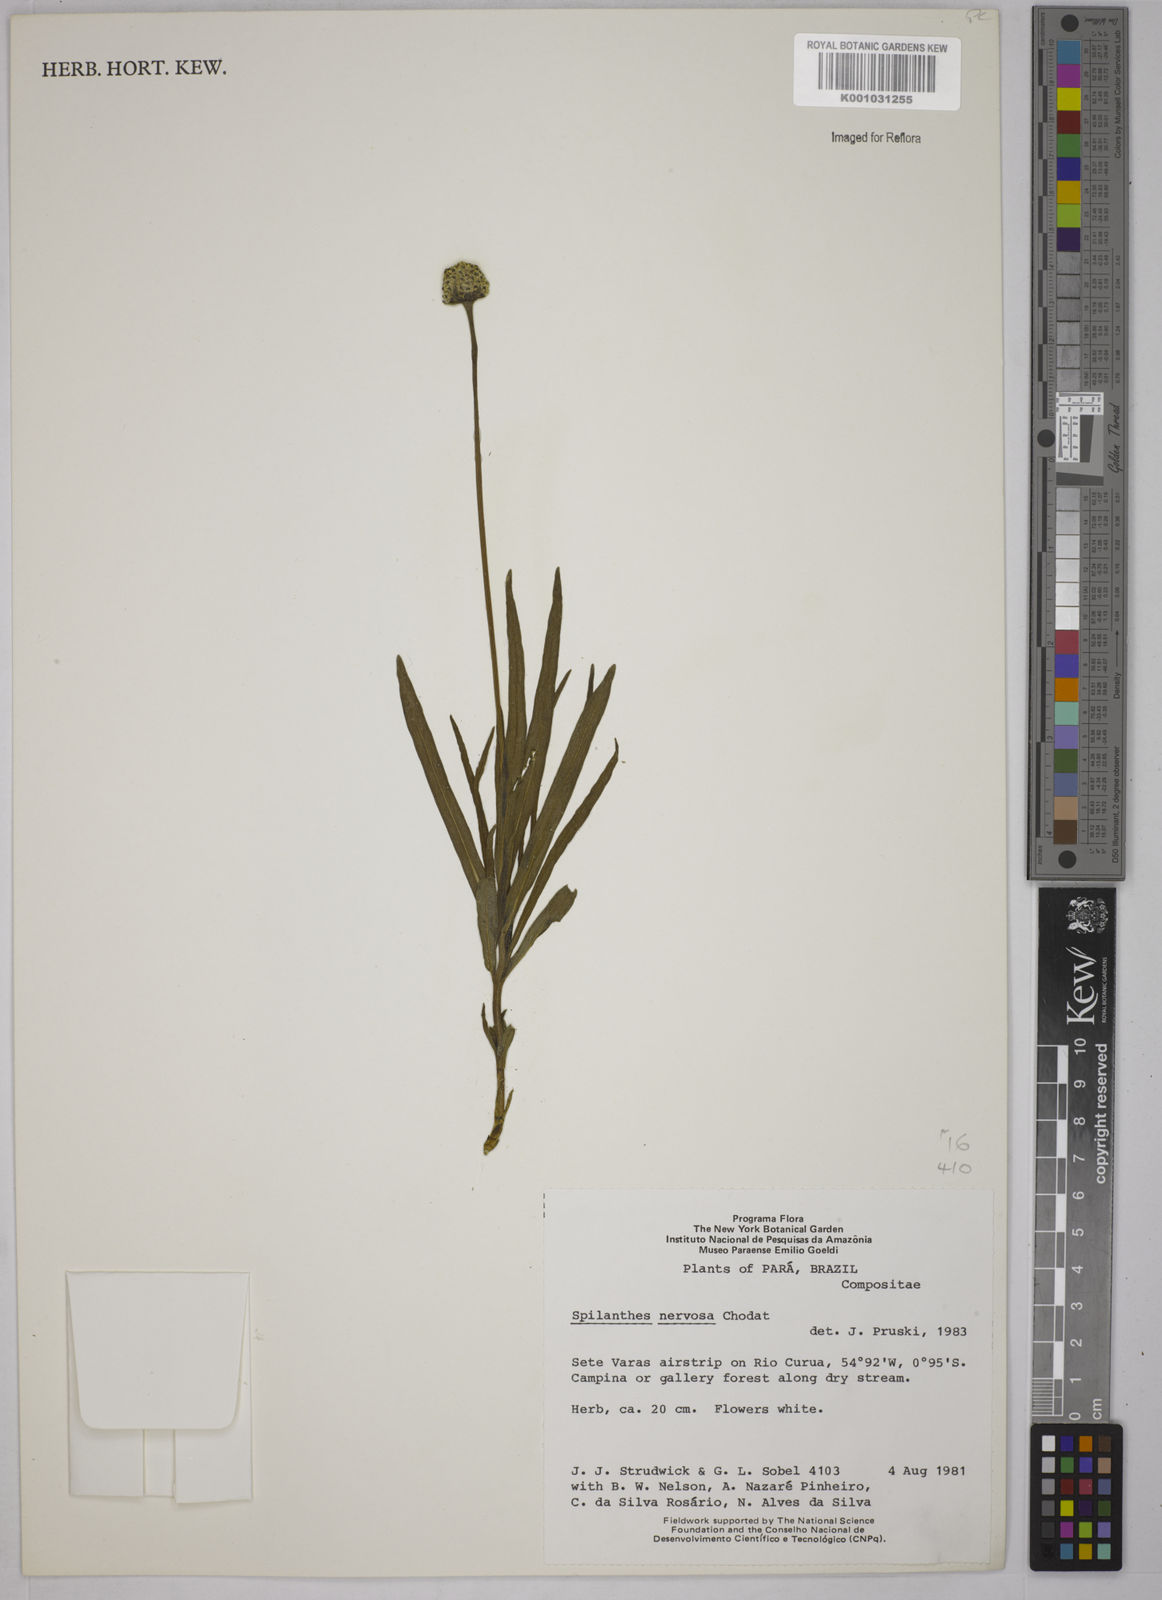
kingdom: Plantae
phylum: Tracheophyta
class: Magnoliopsida
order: Asterales
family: Asteraceae
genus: Spilanthes
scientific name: Spilanthes nervosa
